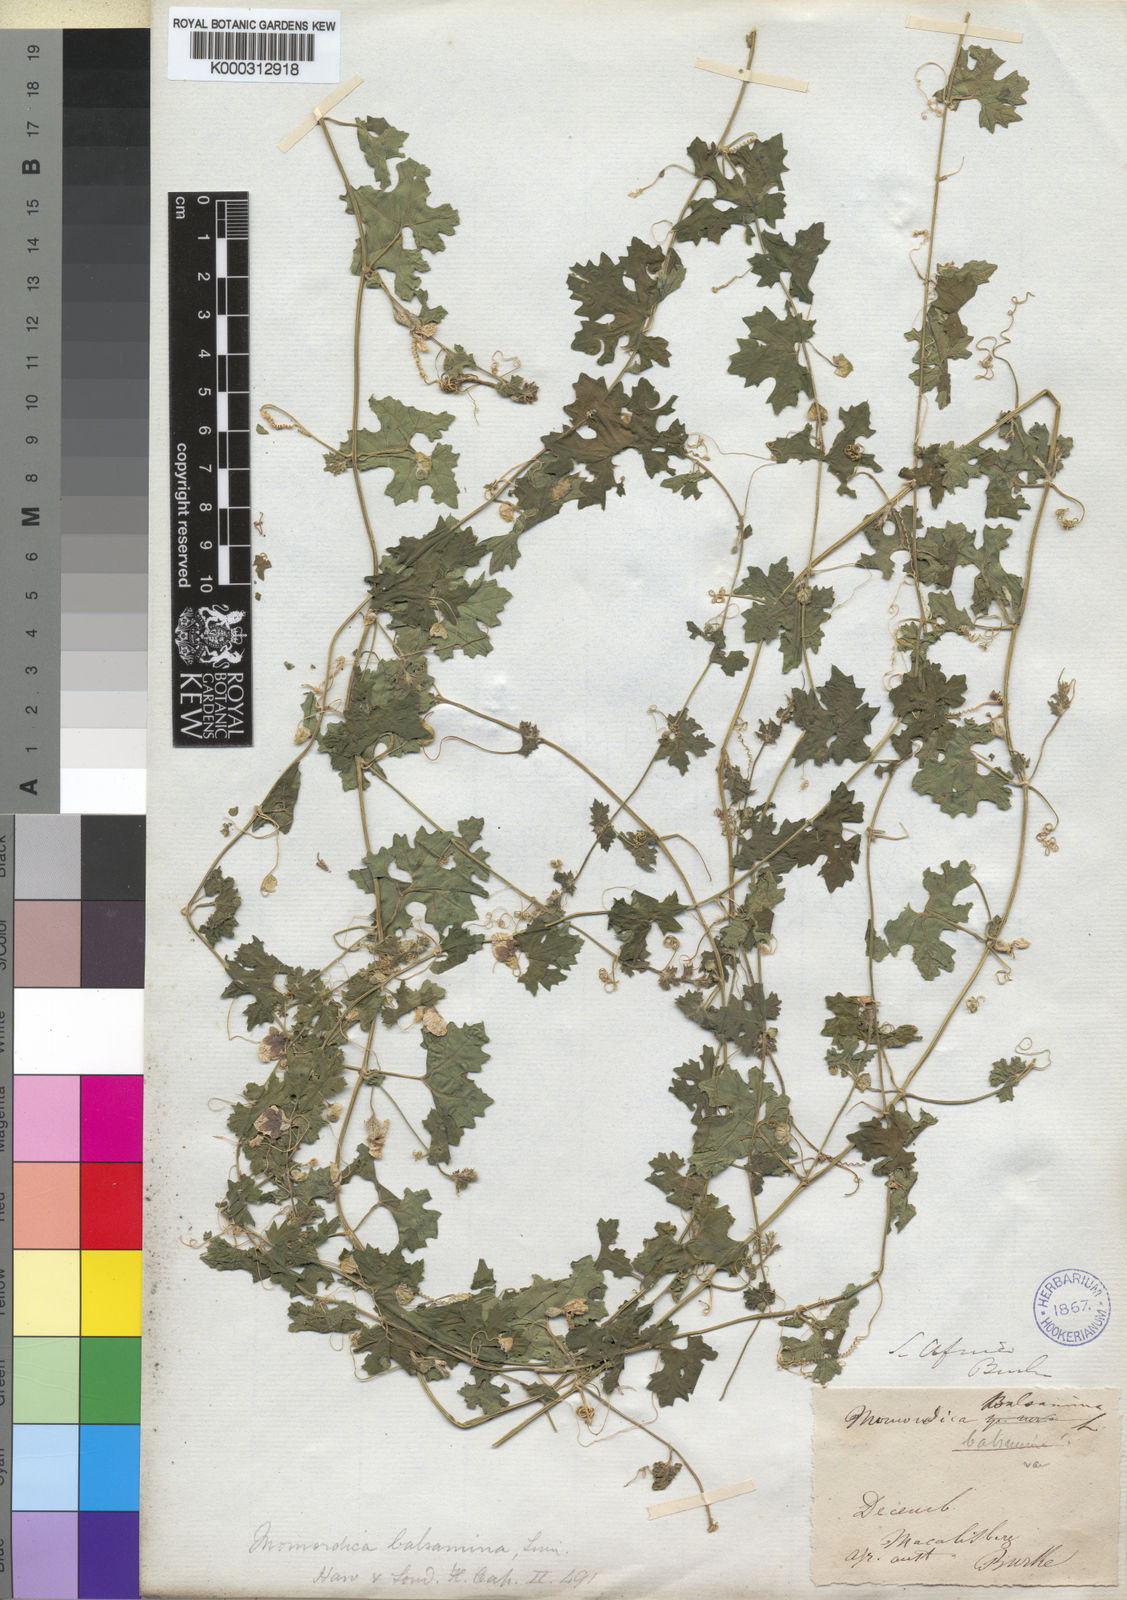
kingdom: Plantae
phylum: Tracheophyta
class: Magnoliopsida
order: Cucurbitales
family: Cucurbitaceae
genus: Momordica
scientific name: Momordica balsamina
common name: Southern balsampear
